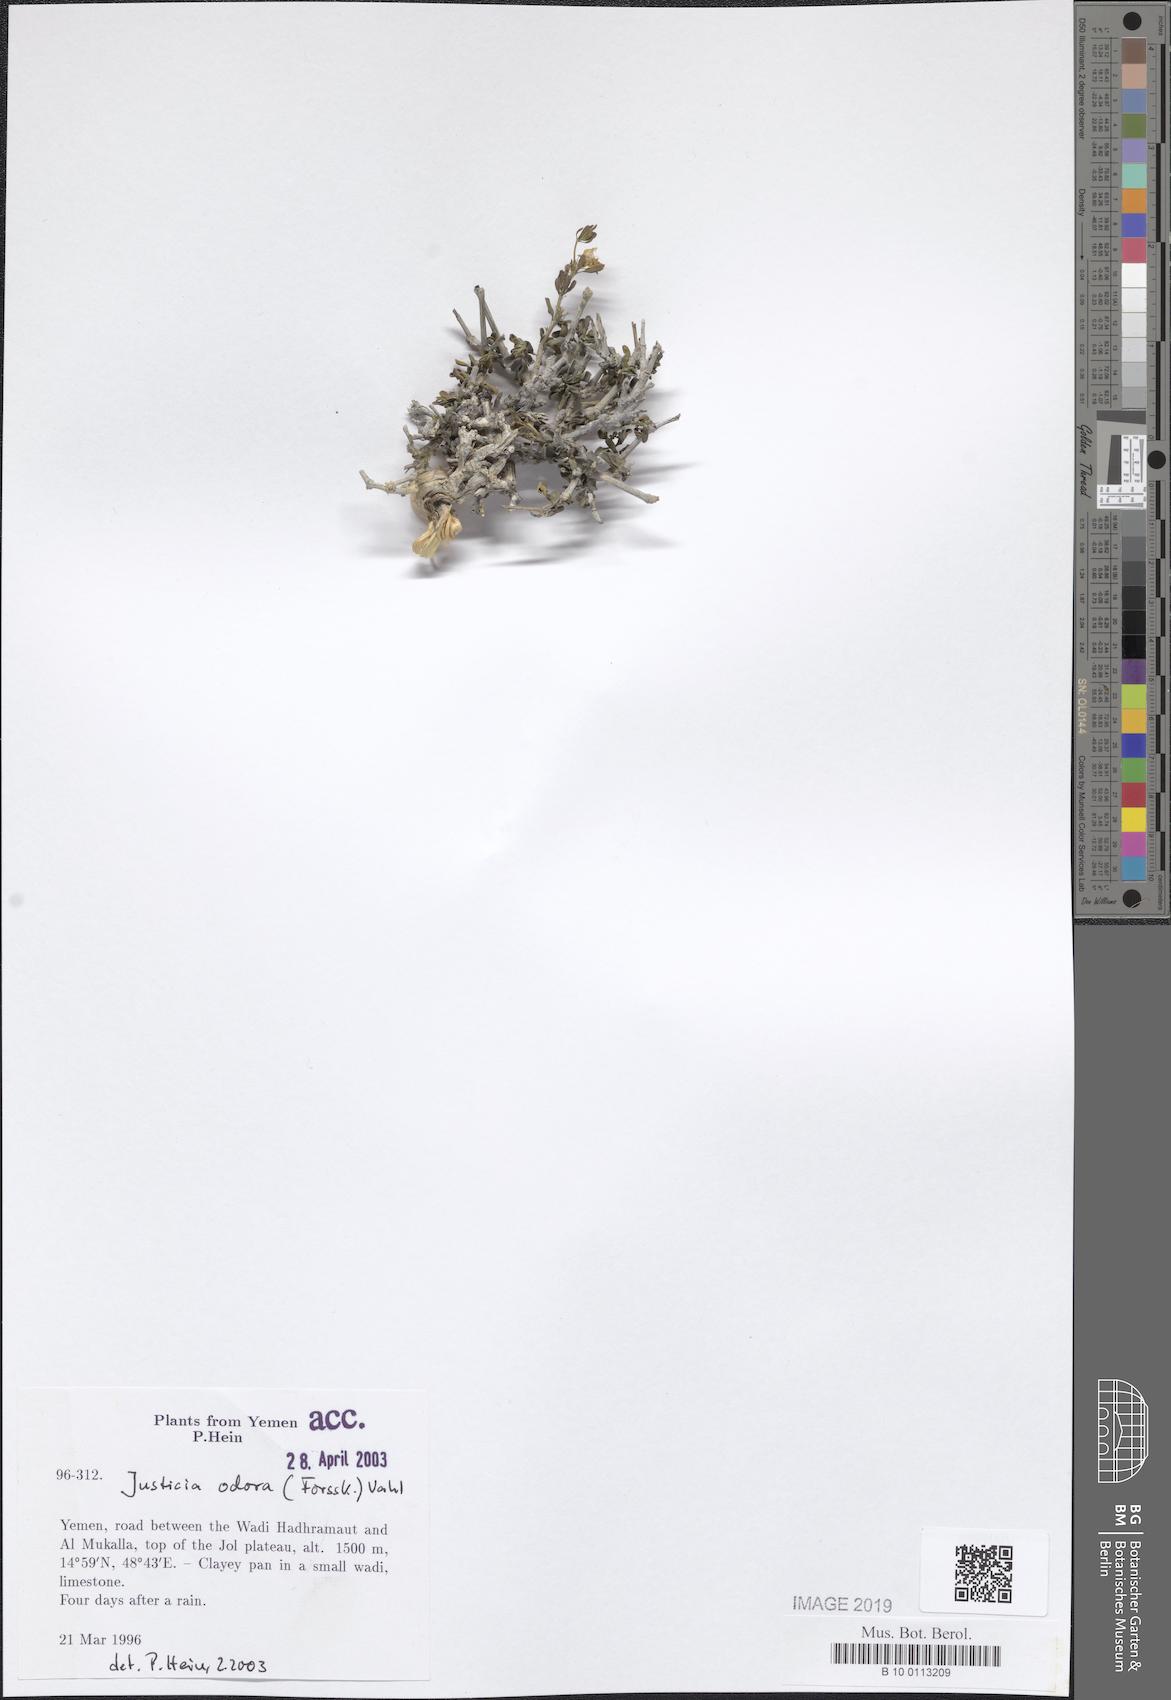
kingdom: Plantae
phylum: Tracheophyta
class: Magnoliopsida
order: Lamiales
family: Acanthaceae
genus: Justicia
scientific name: Justicia odora
